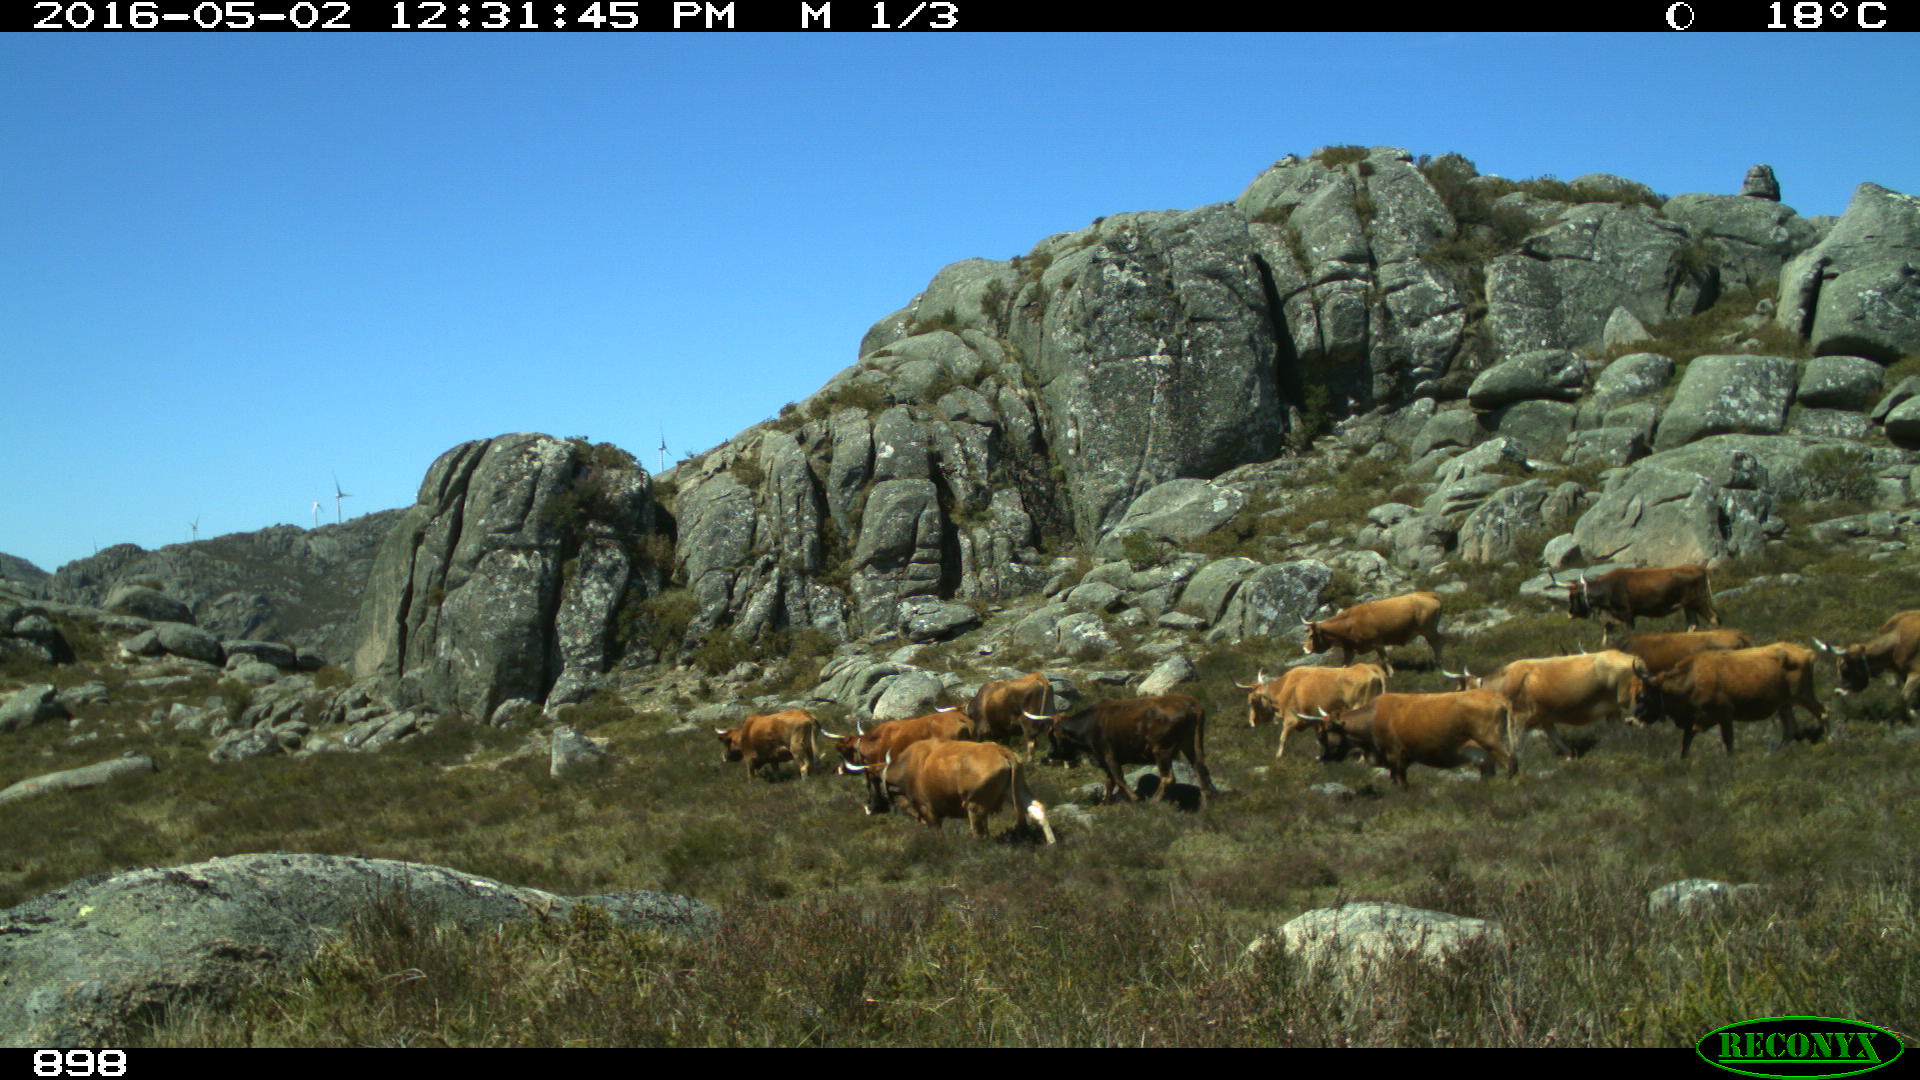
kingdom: Animalia
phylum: Chordata
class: Mammalia
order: Artiodactyla
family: Bovidae
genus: Bos
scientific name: Bos taurus
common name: Domesticated cattle
